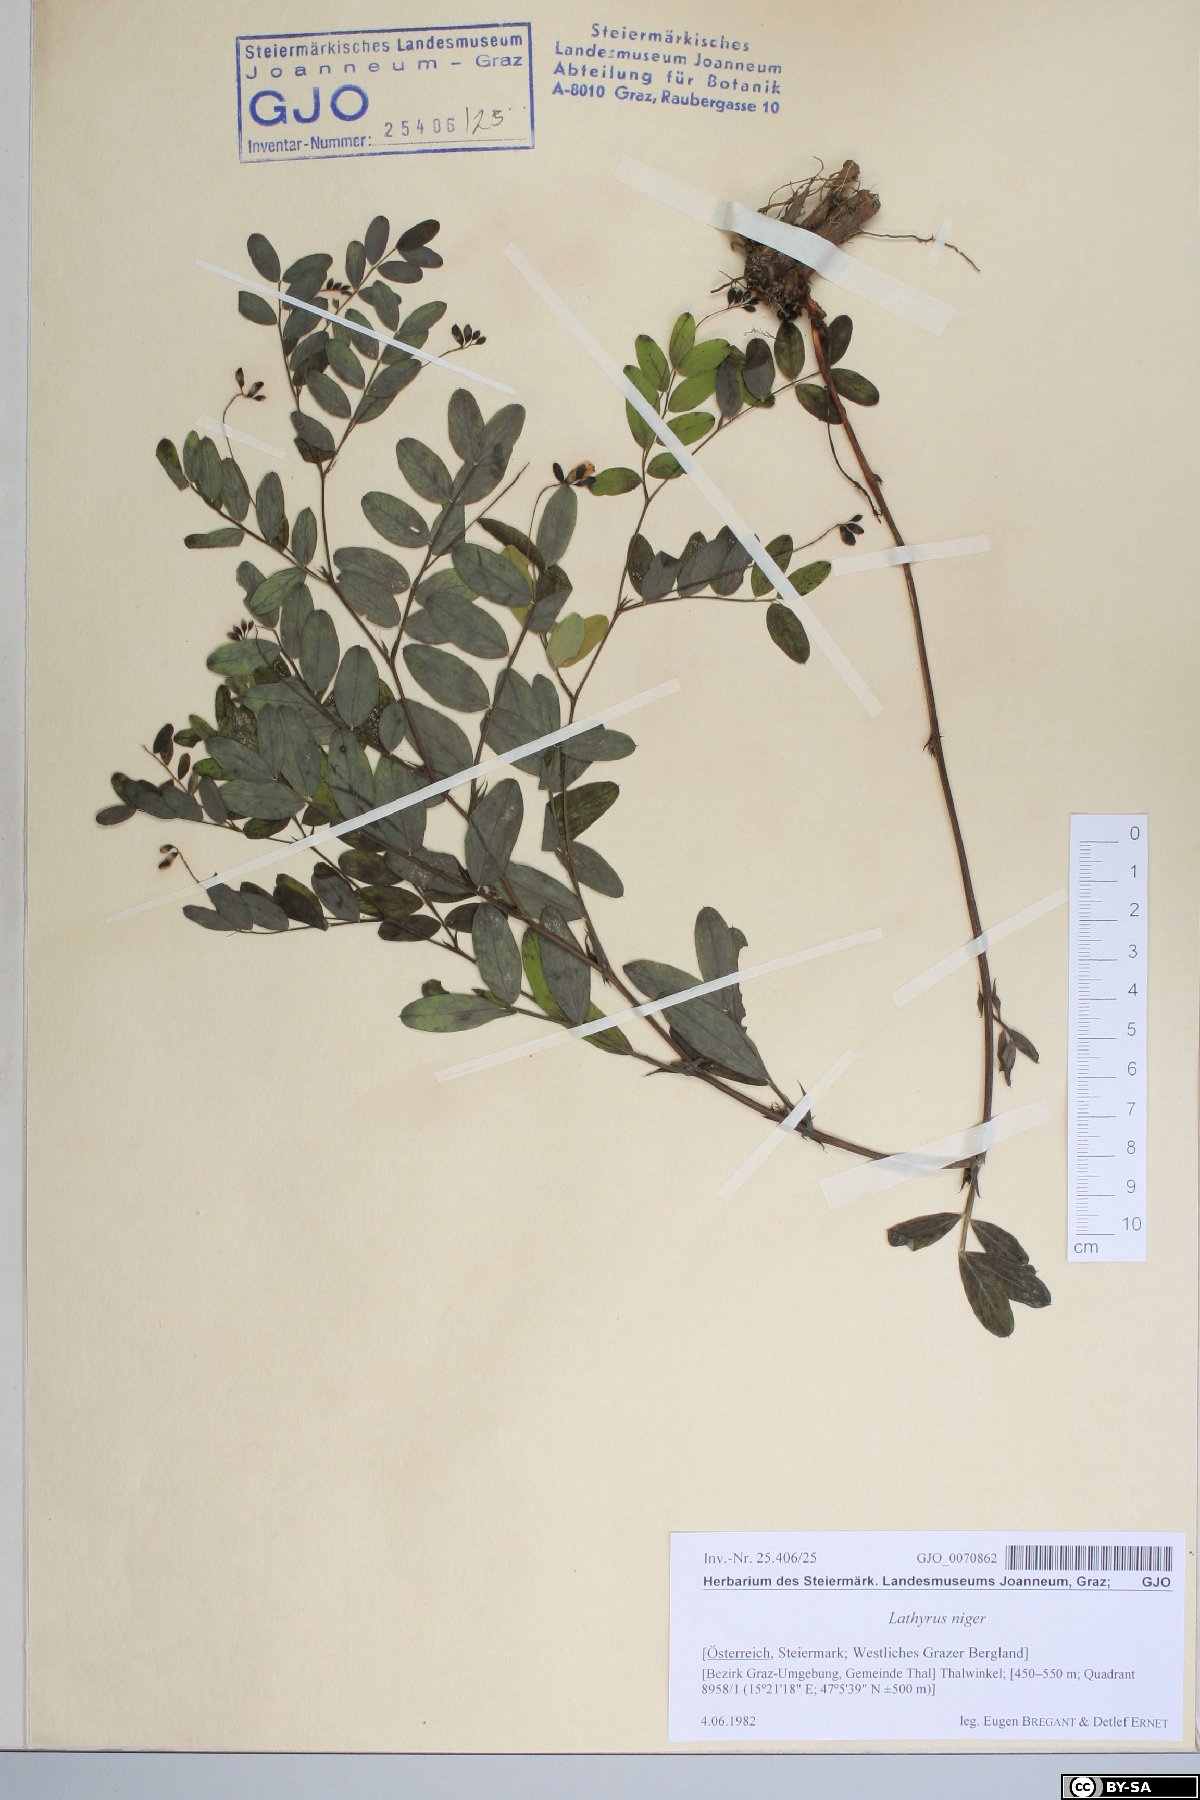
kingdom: Plantae
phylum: Tracheophyta
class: Magnoliopsida
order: Fabales
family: Fabaceae
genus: Lathyrus
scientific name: Lathyrus niger
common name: Black pea
